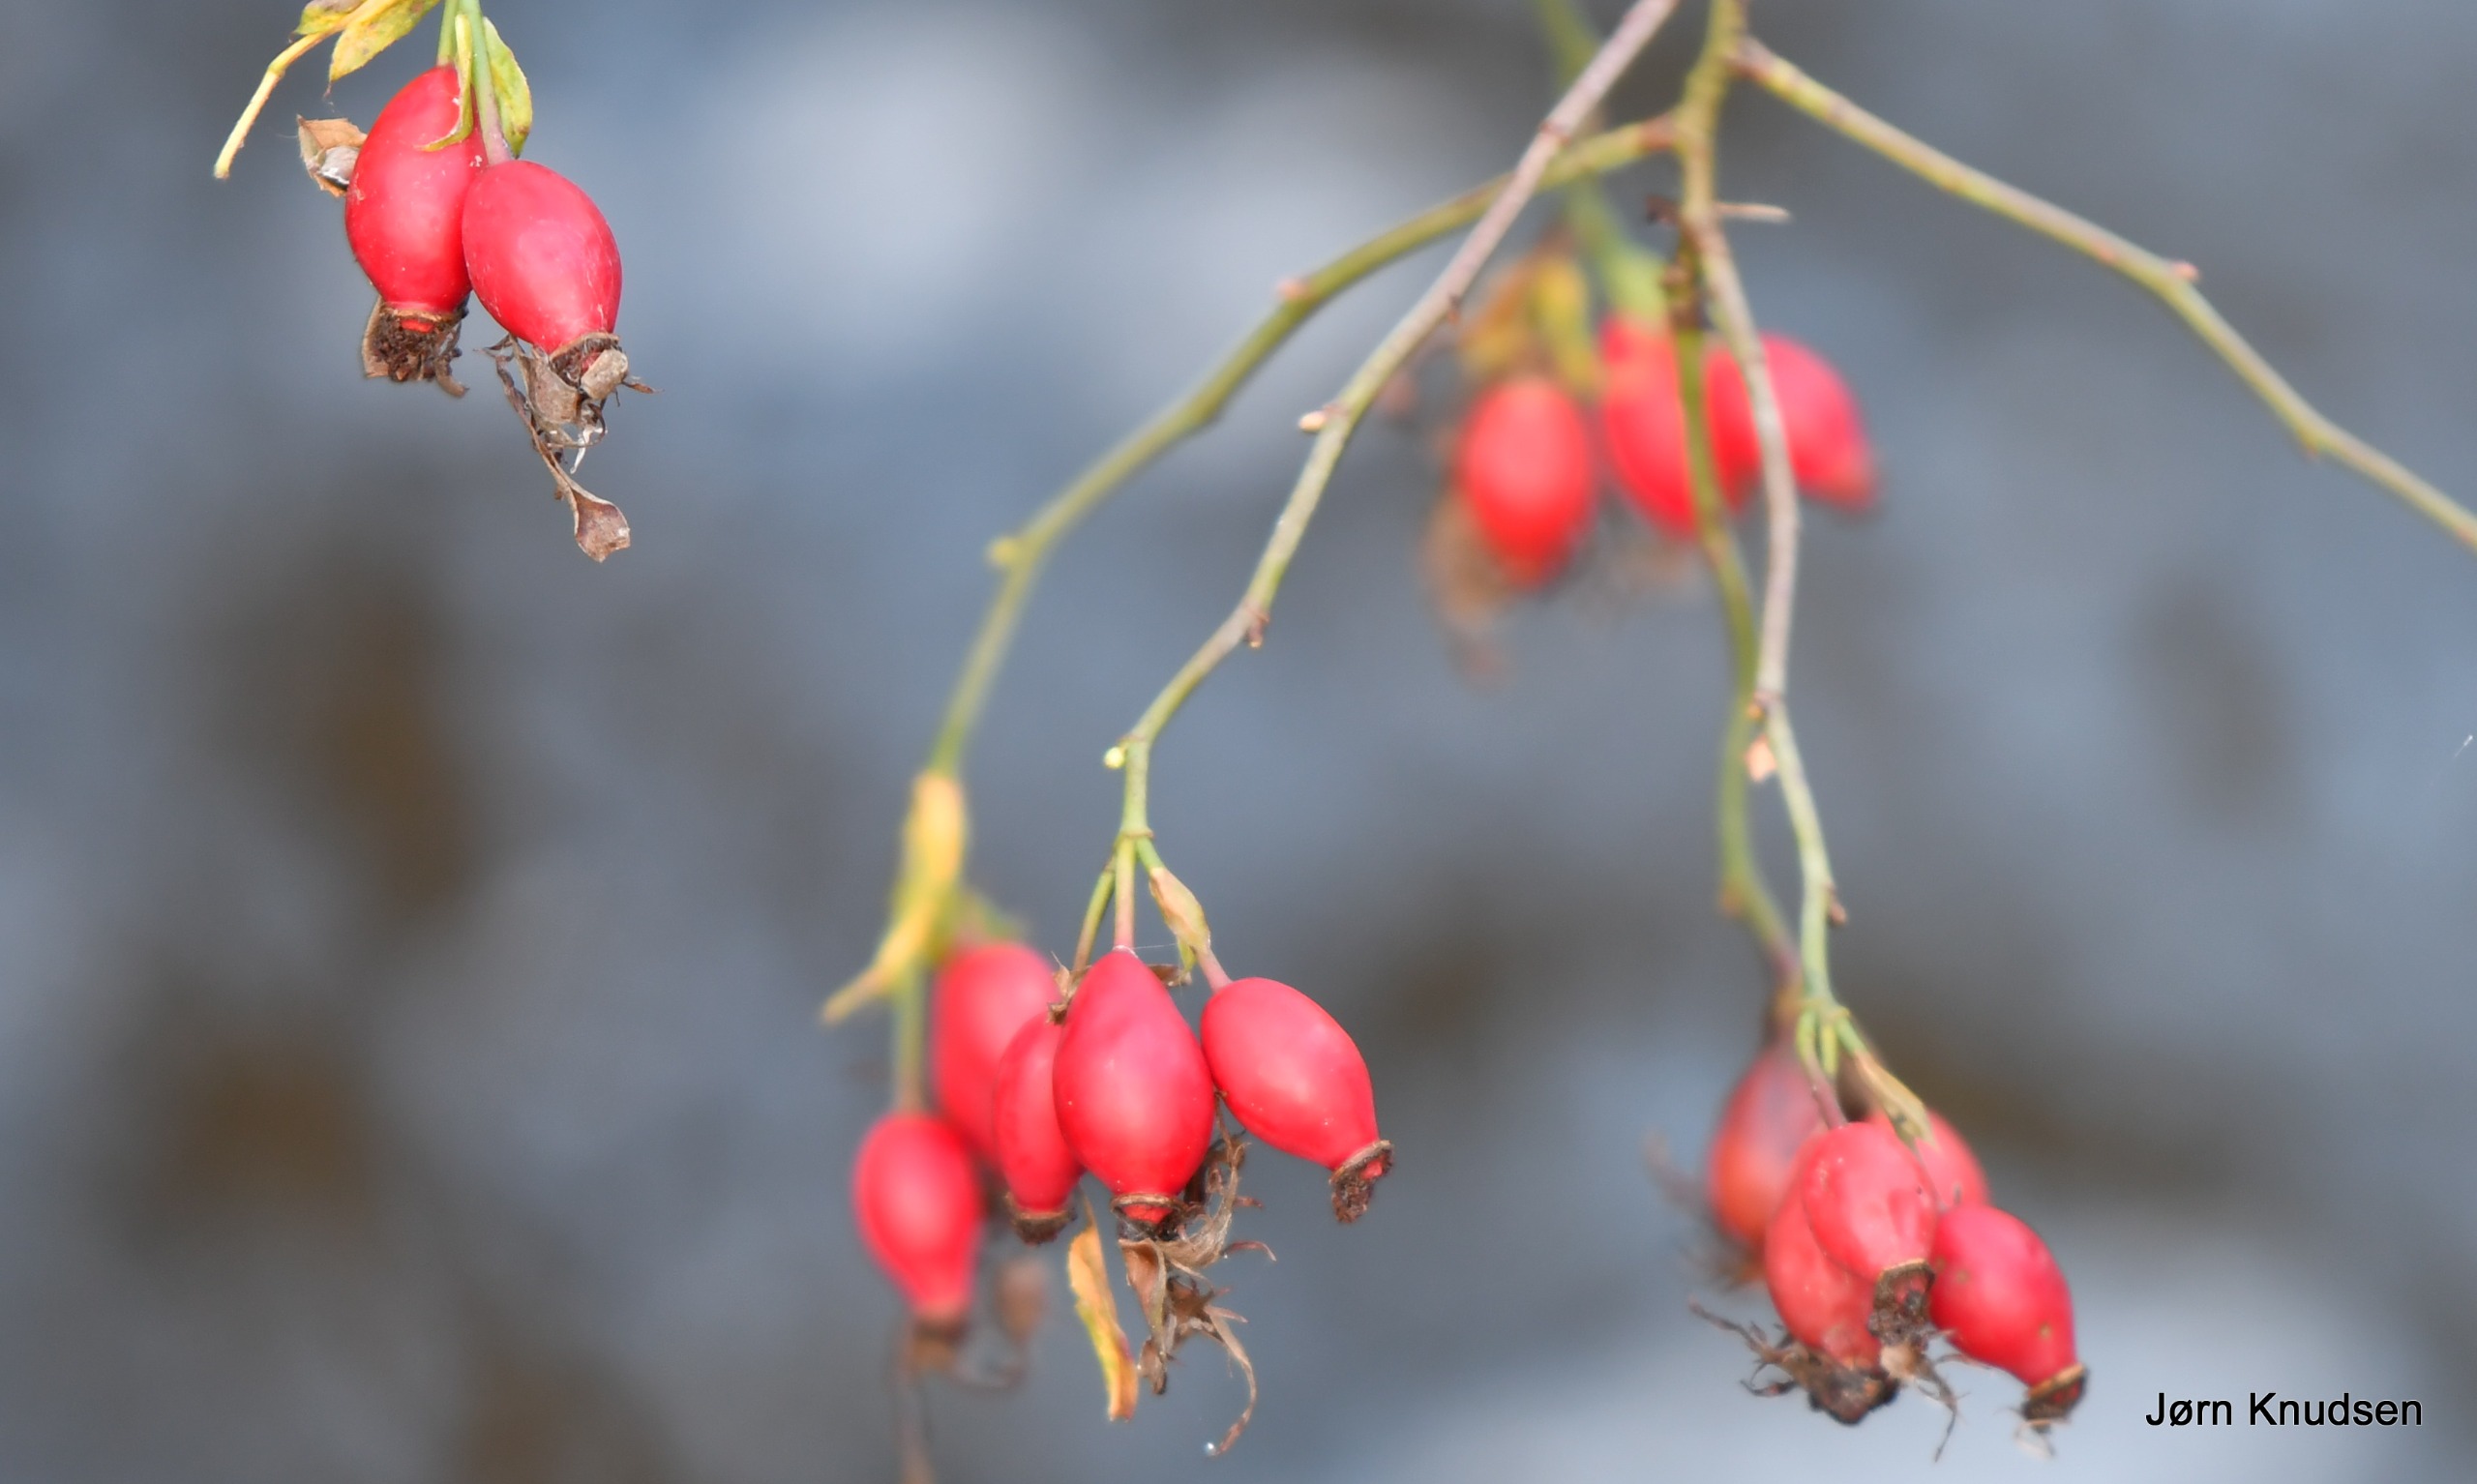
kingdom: Plantae
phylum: Tracheophyta
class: Magnoliopsida
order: Rosales
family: Rosaceae
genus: Rosa
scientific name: Rosa canina
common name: Hunde-rose
